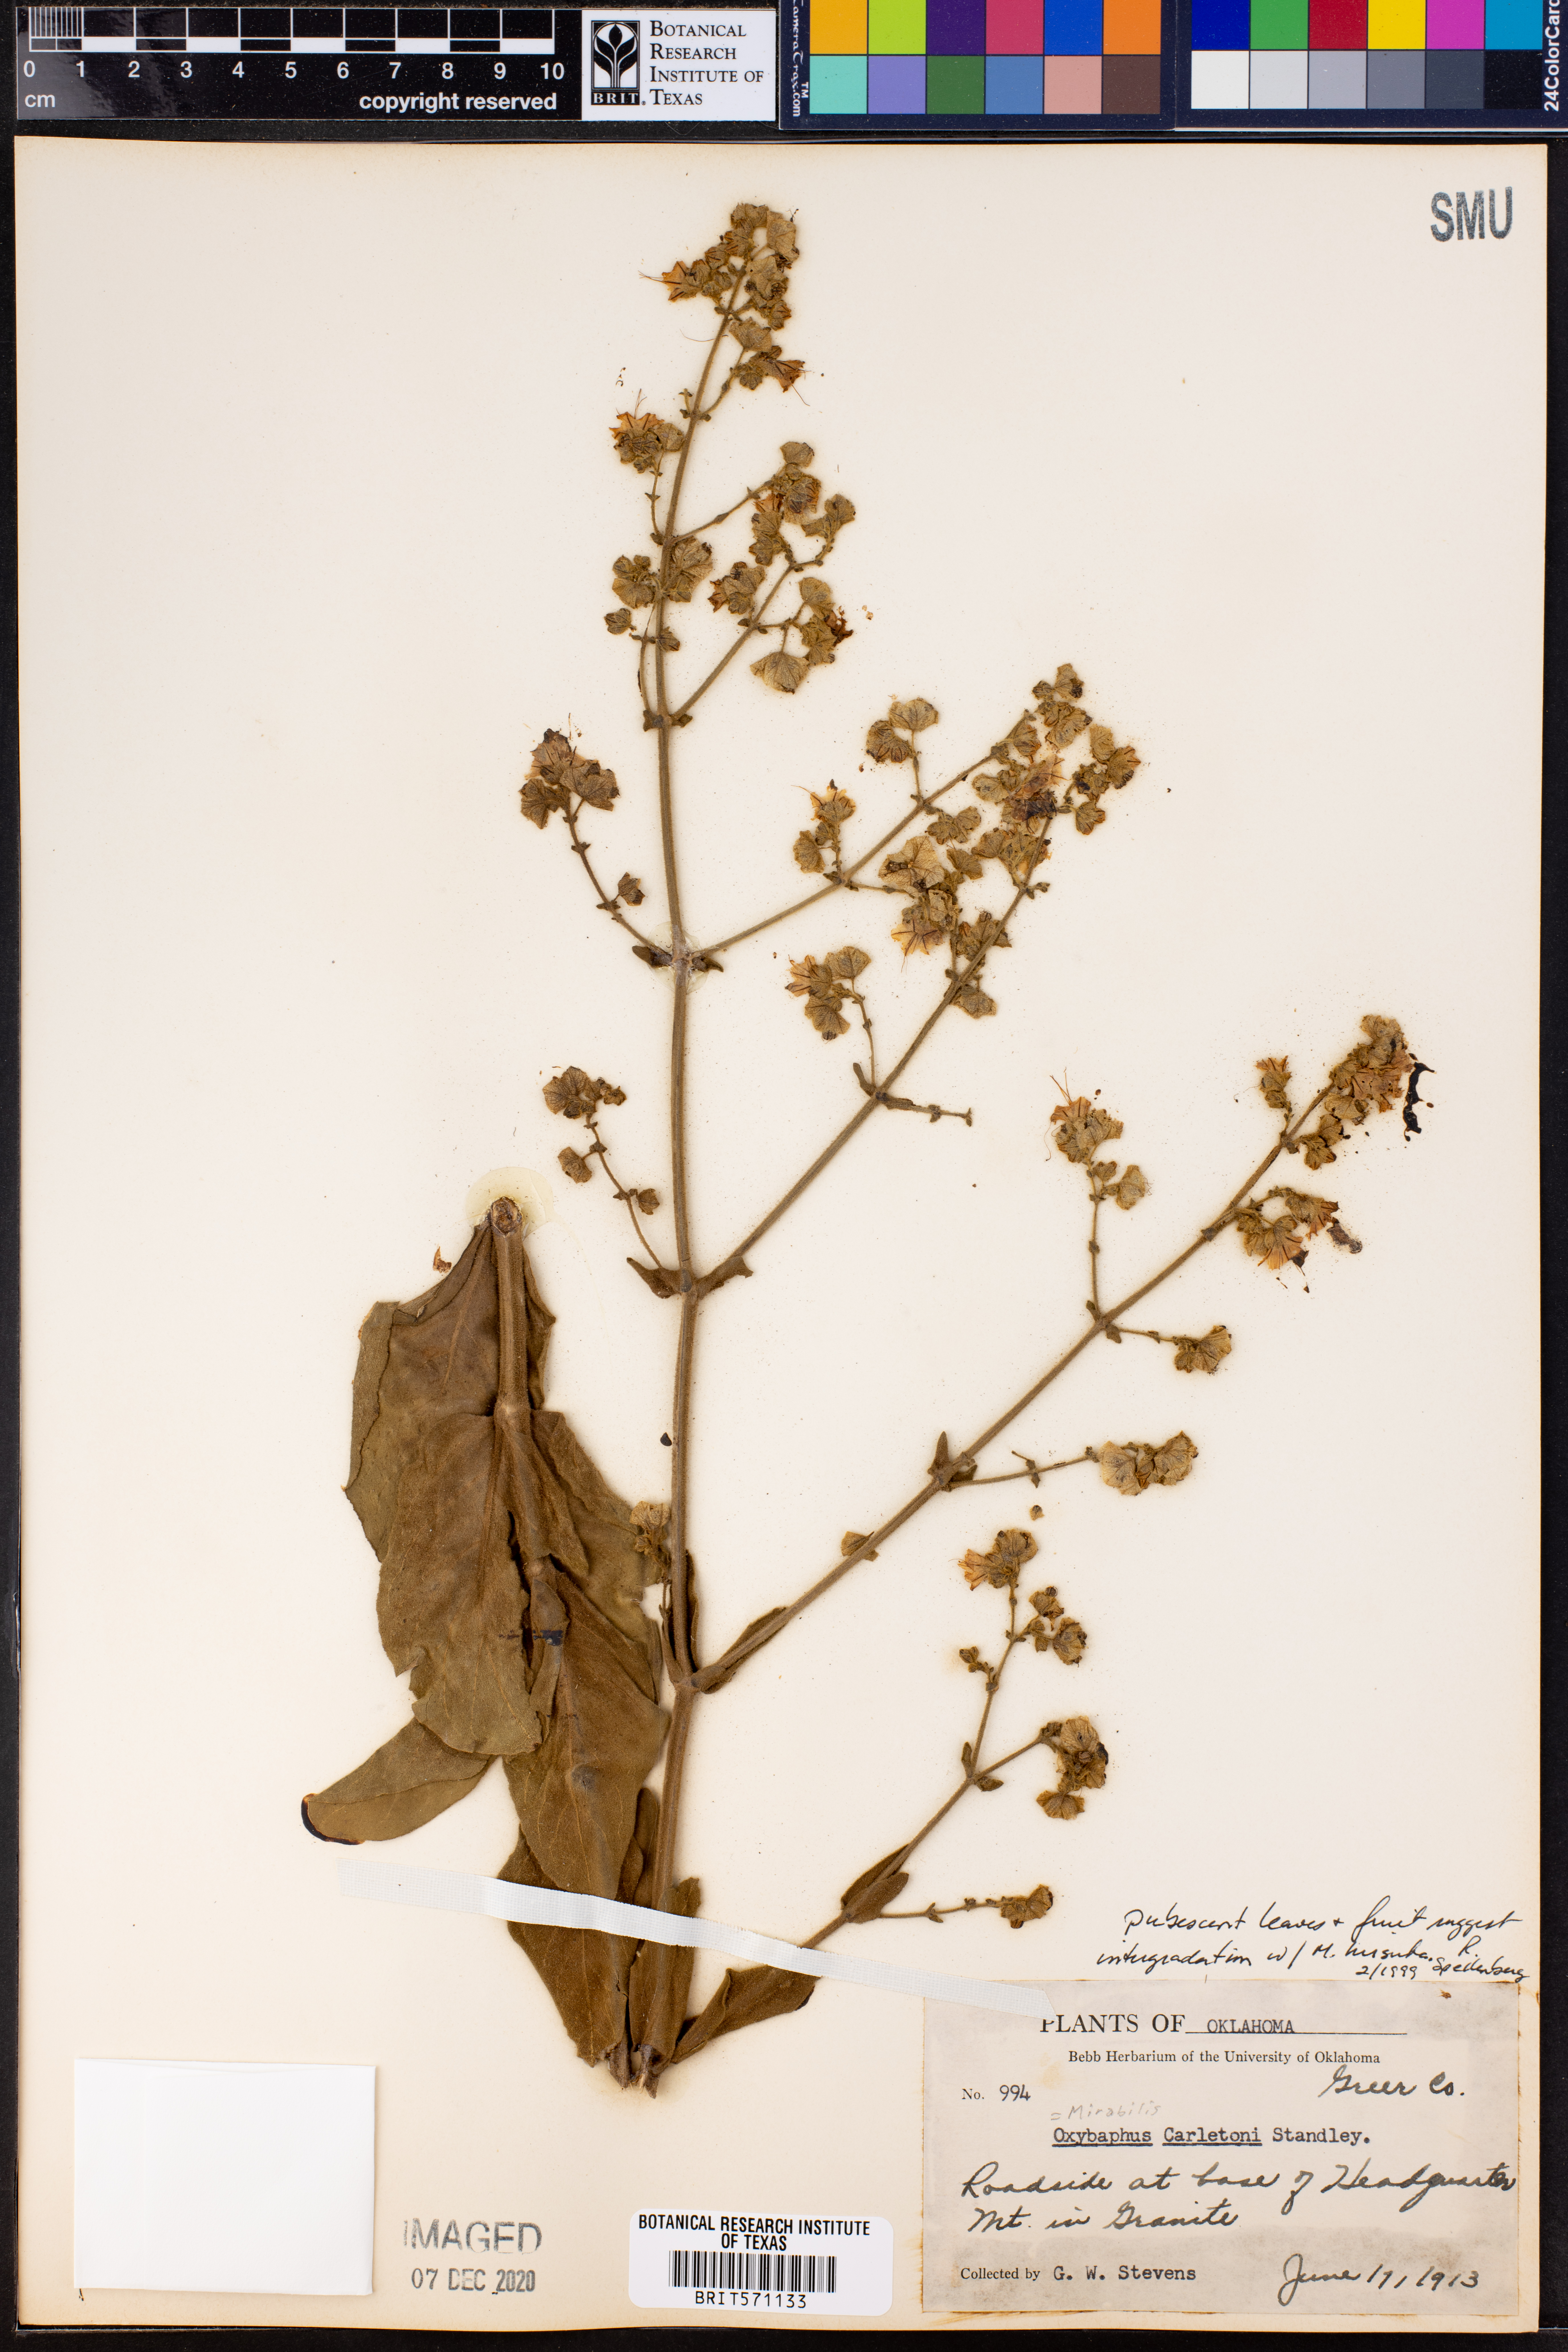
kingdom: Plantae
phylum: Tracheophyta
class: Magnoliopsida
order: Caryophyllales
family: Nyctaginaceae
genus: Mirabilis
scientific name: Mirabilis glabra
